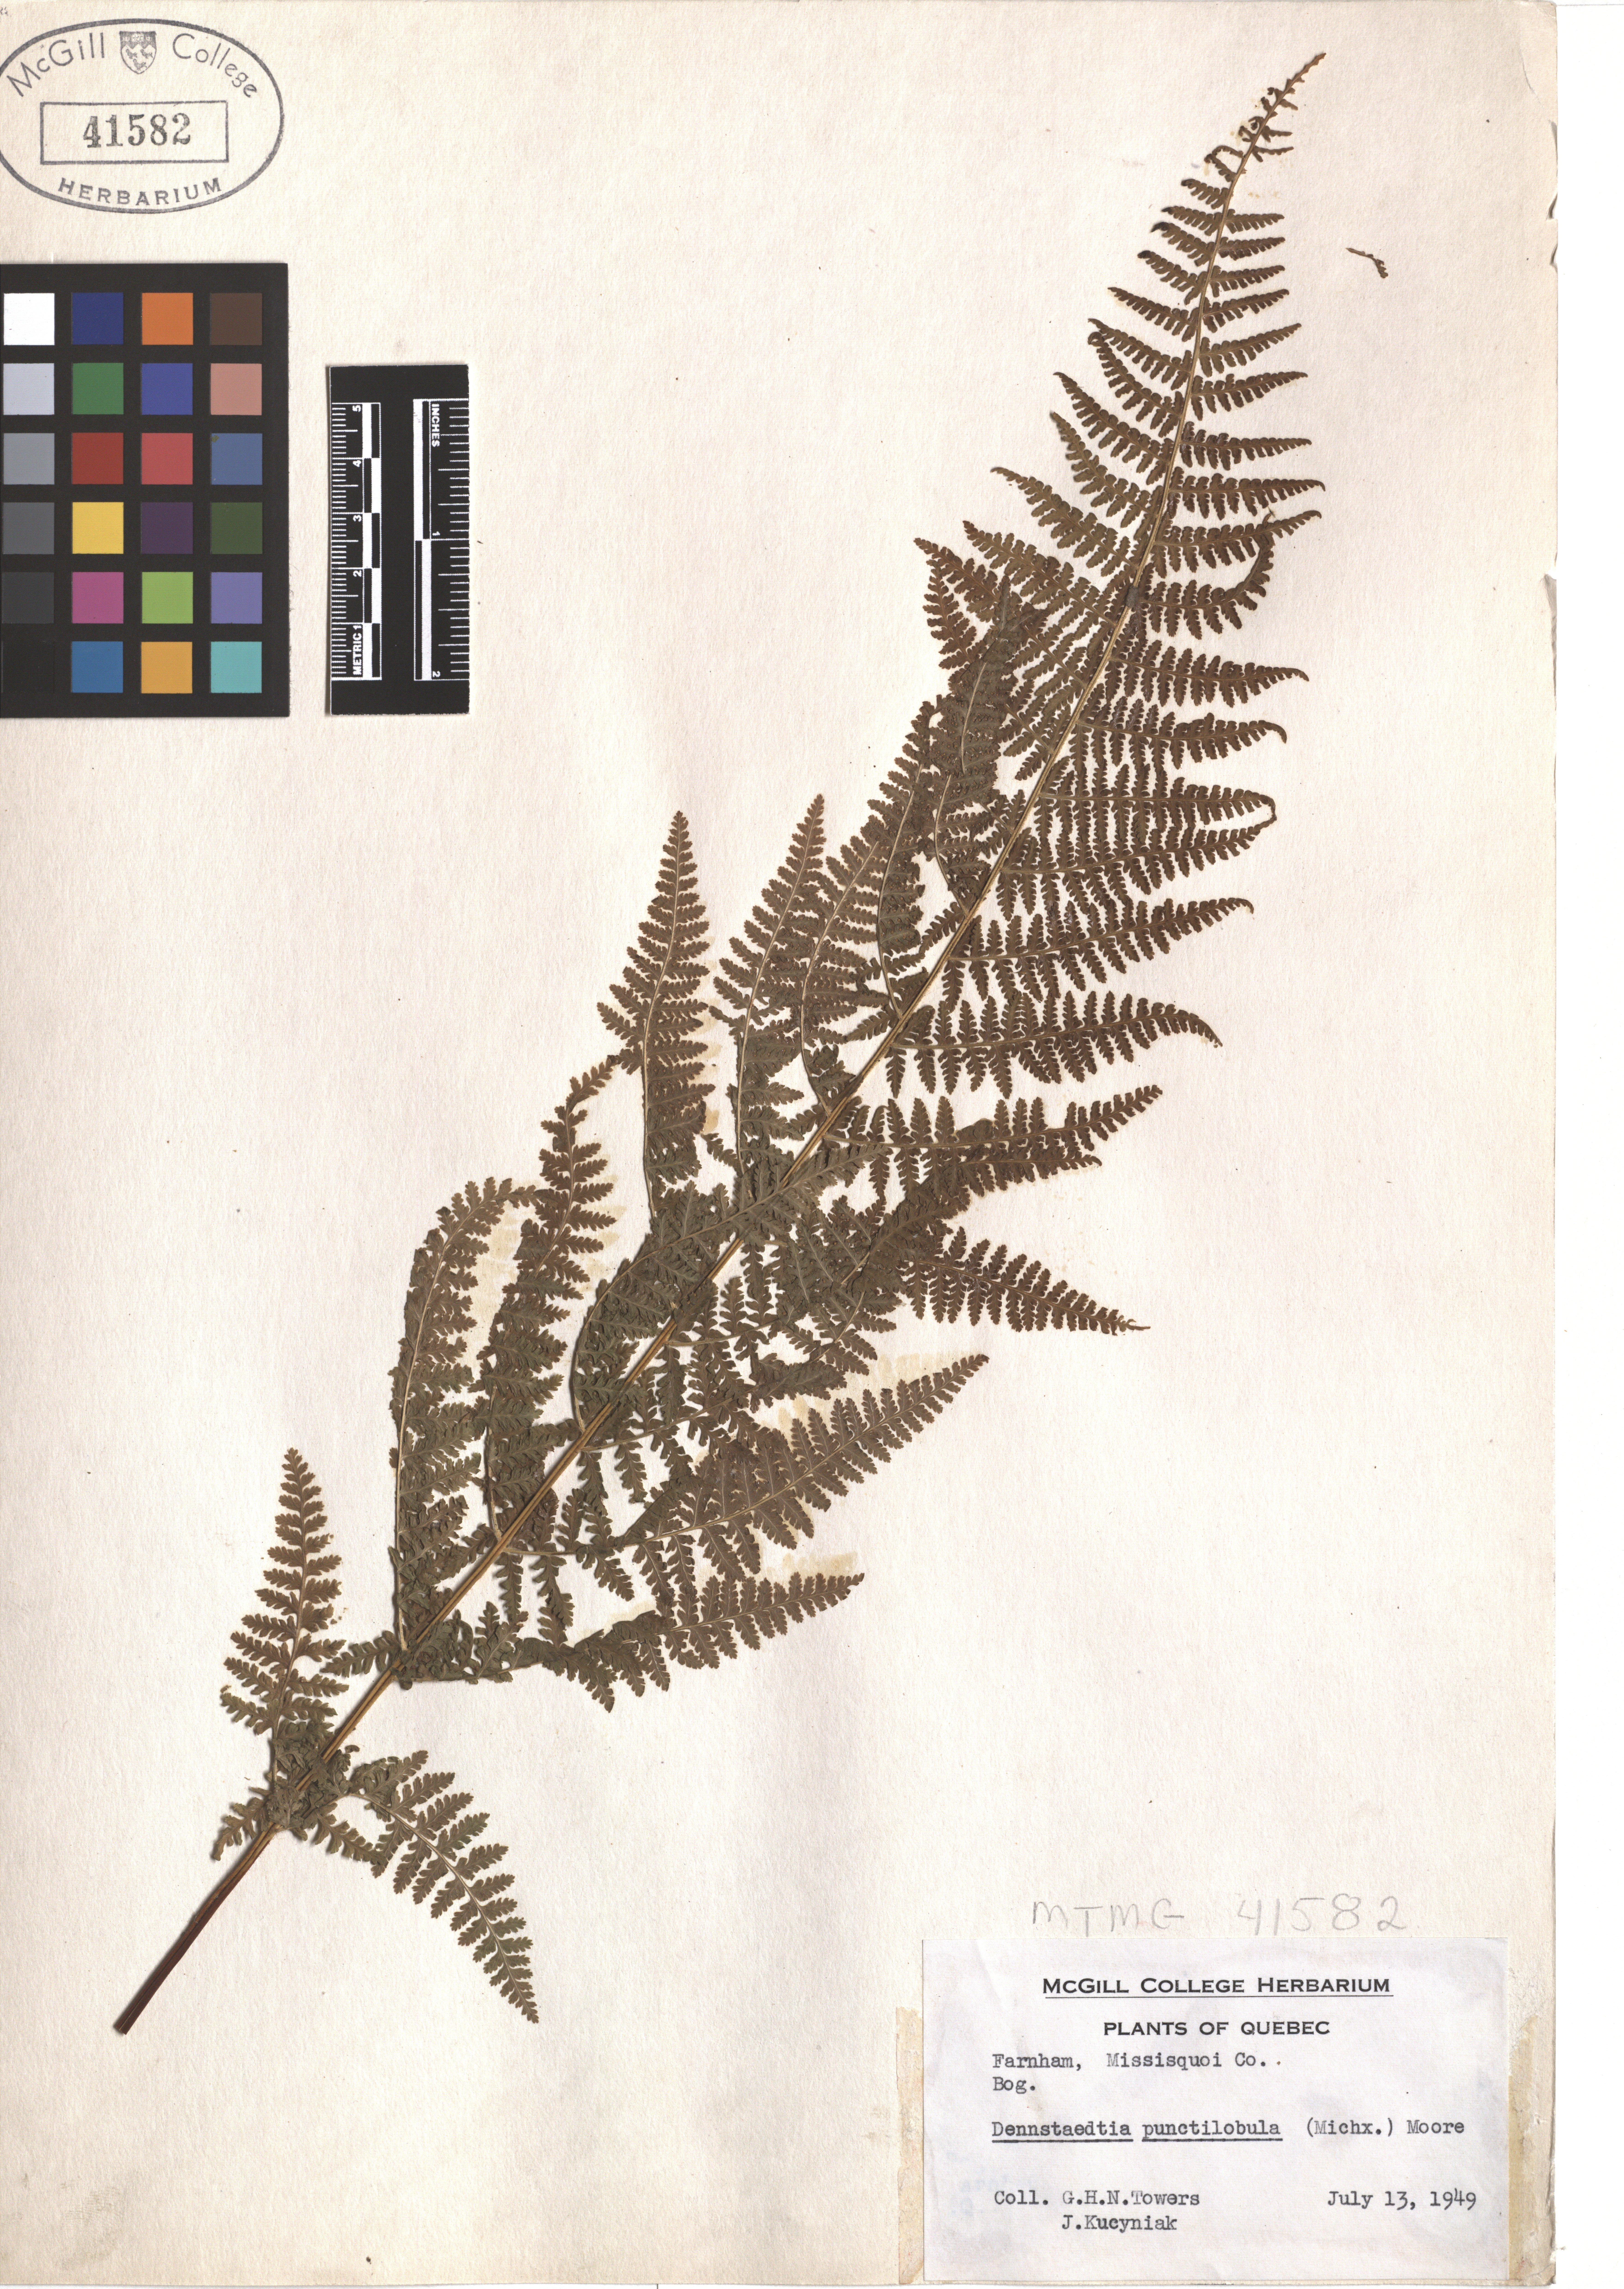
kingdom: Plantae
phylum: Tracheophyta
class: Polypodiopsida
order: Polypodiales
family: Dennstaedtiaceae
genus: Sitobolium
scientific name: Sitobolium punctilobum
